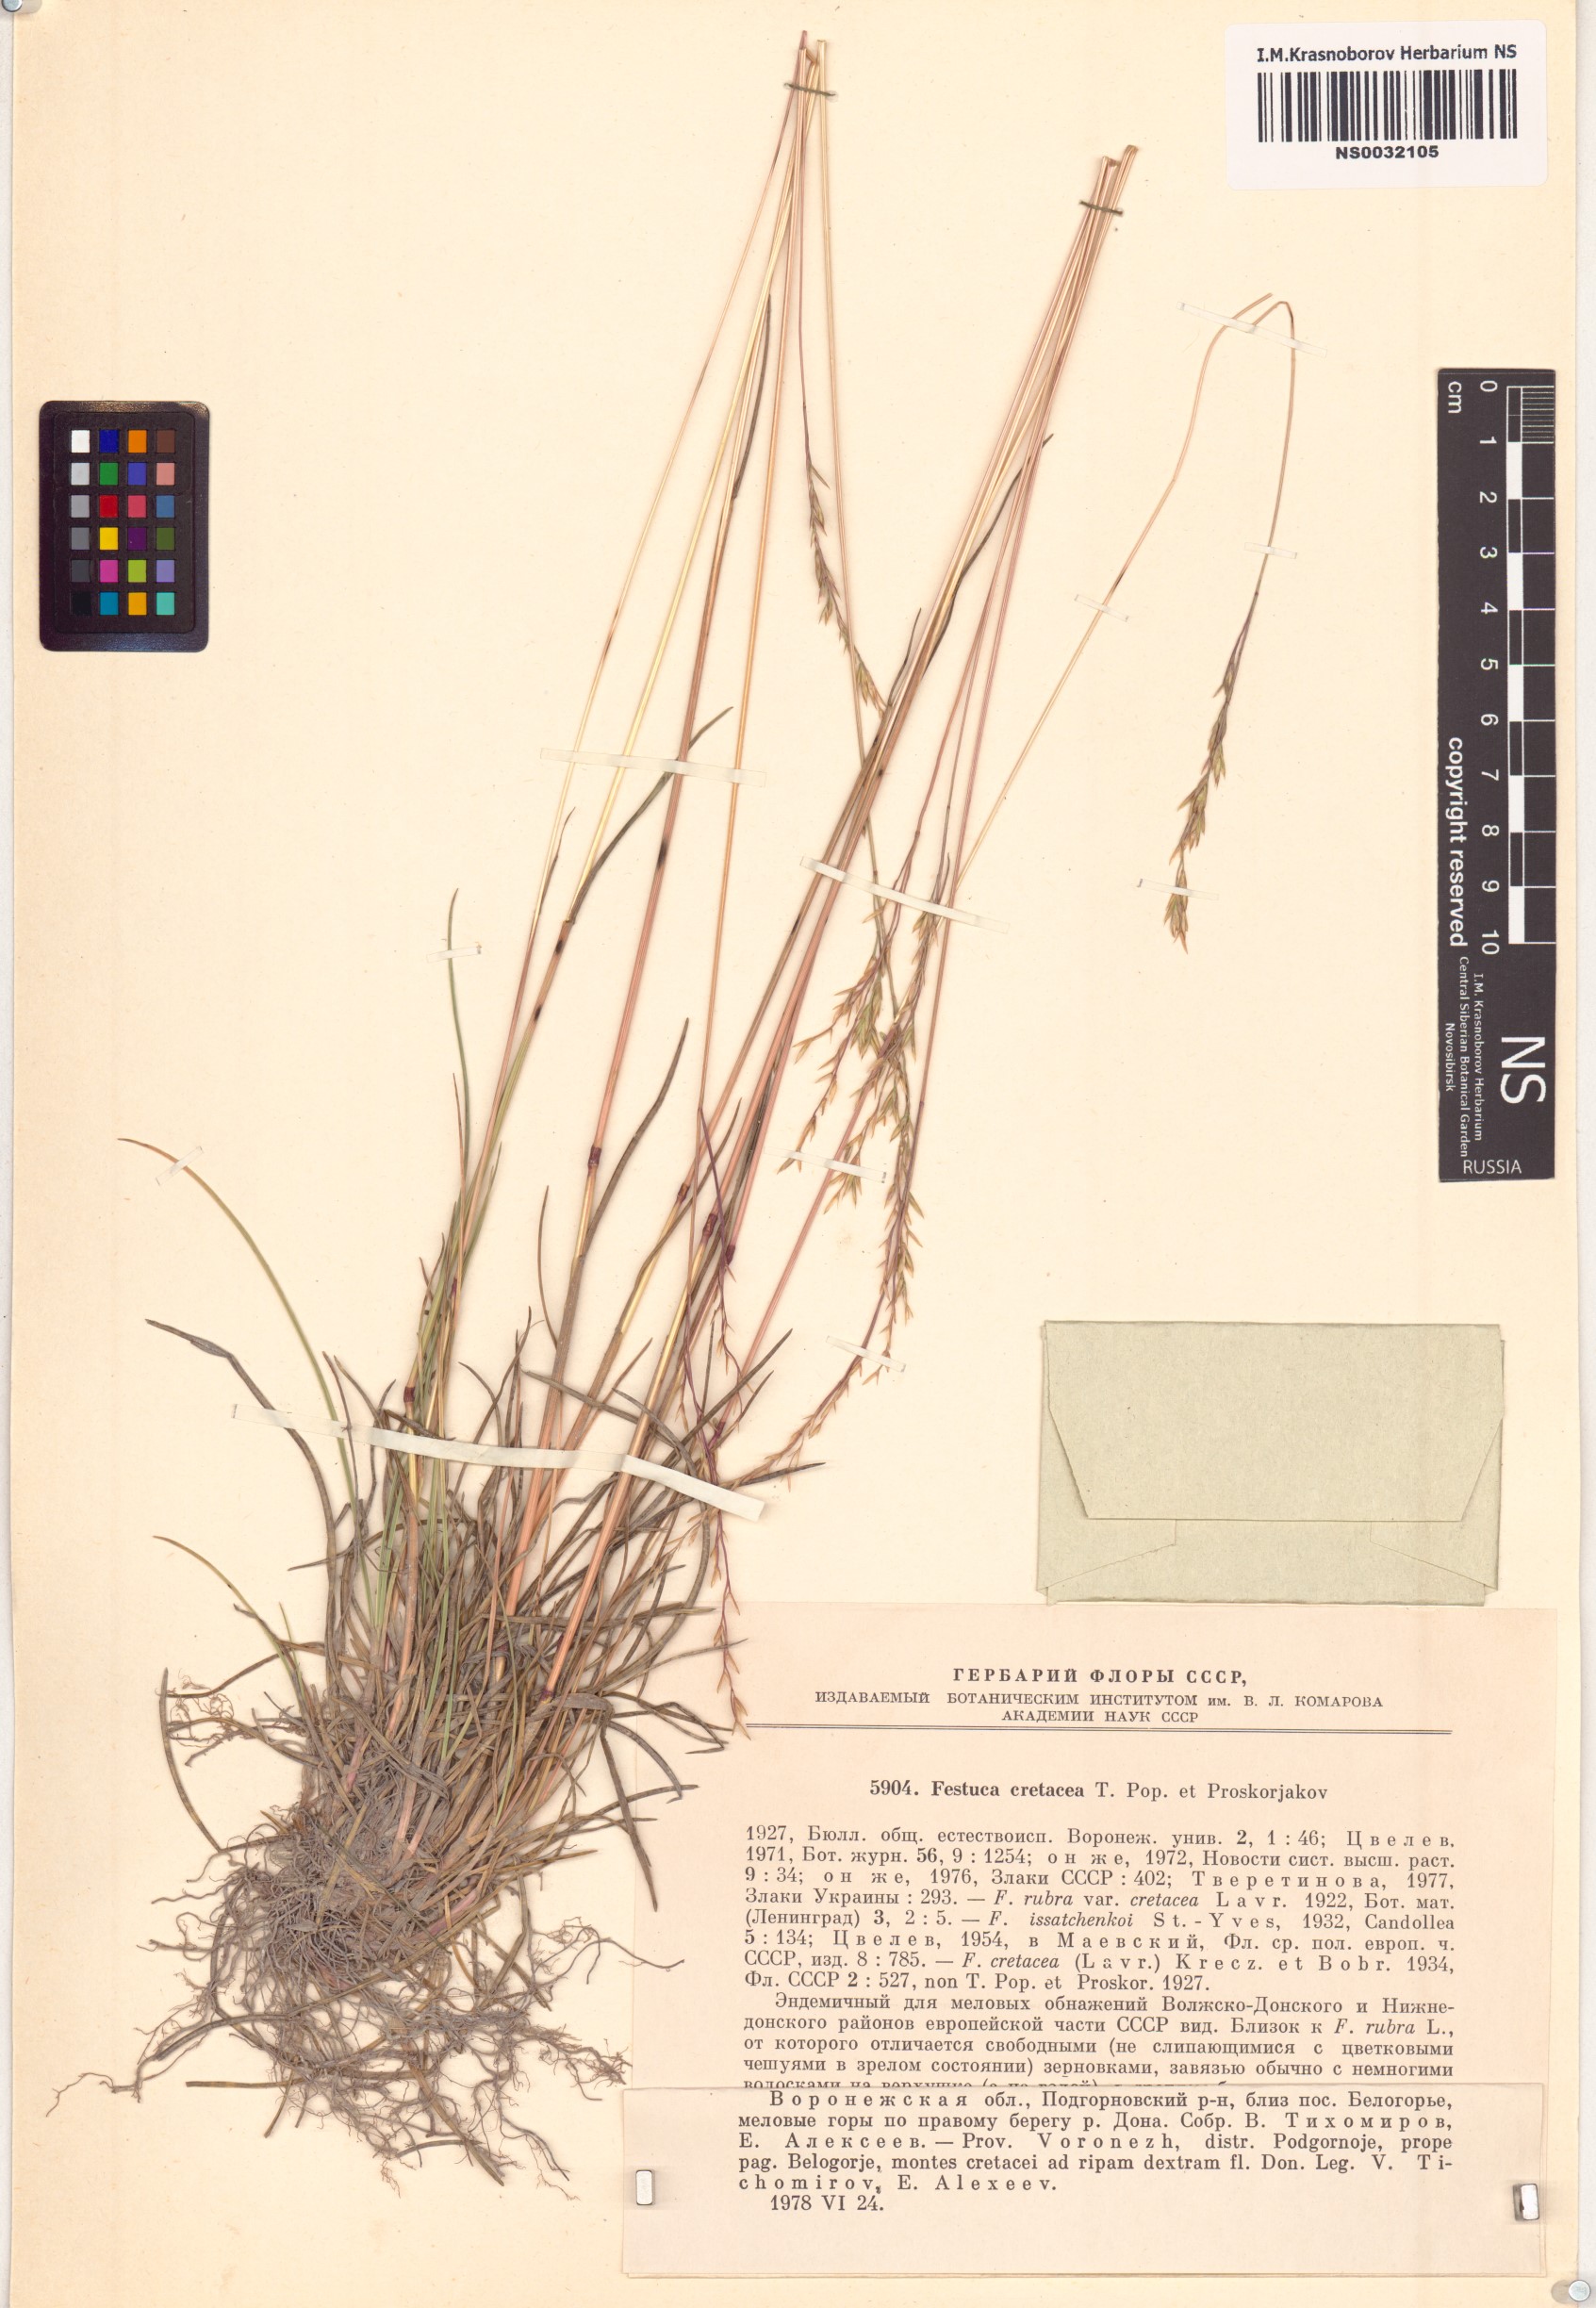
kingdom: Plantae
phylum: Tracheophyta
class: Liliopsida
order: Poales
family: Poaceae
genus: Festuca
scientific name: Festuca cretacea
